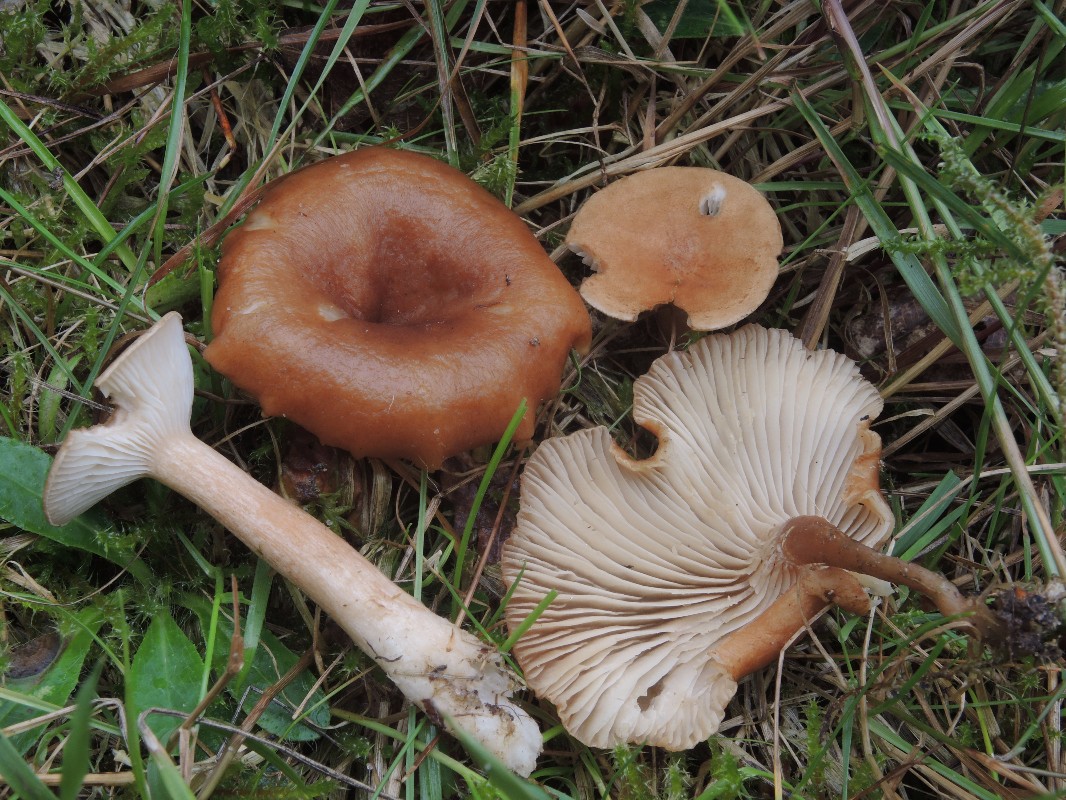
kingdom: Fungi
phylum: Basidiomycota
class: Agaricomycetes
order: Agaricales
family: Tricholomataceae
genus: Clitocybe
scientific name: Clitocybe costata
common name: brunstokket tragthat
